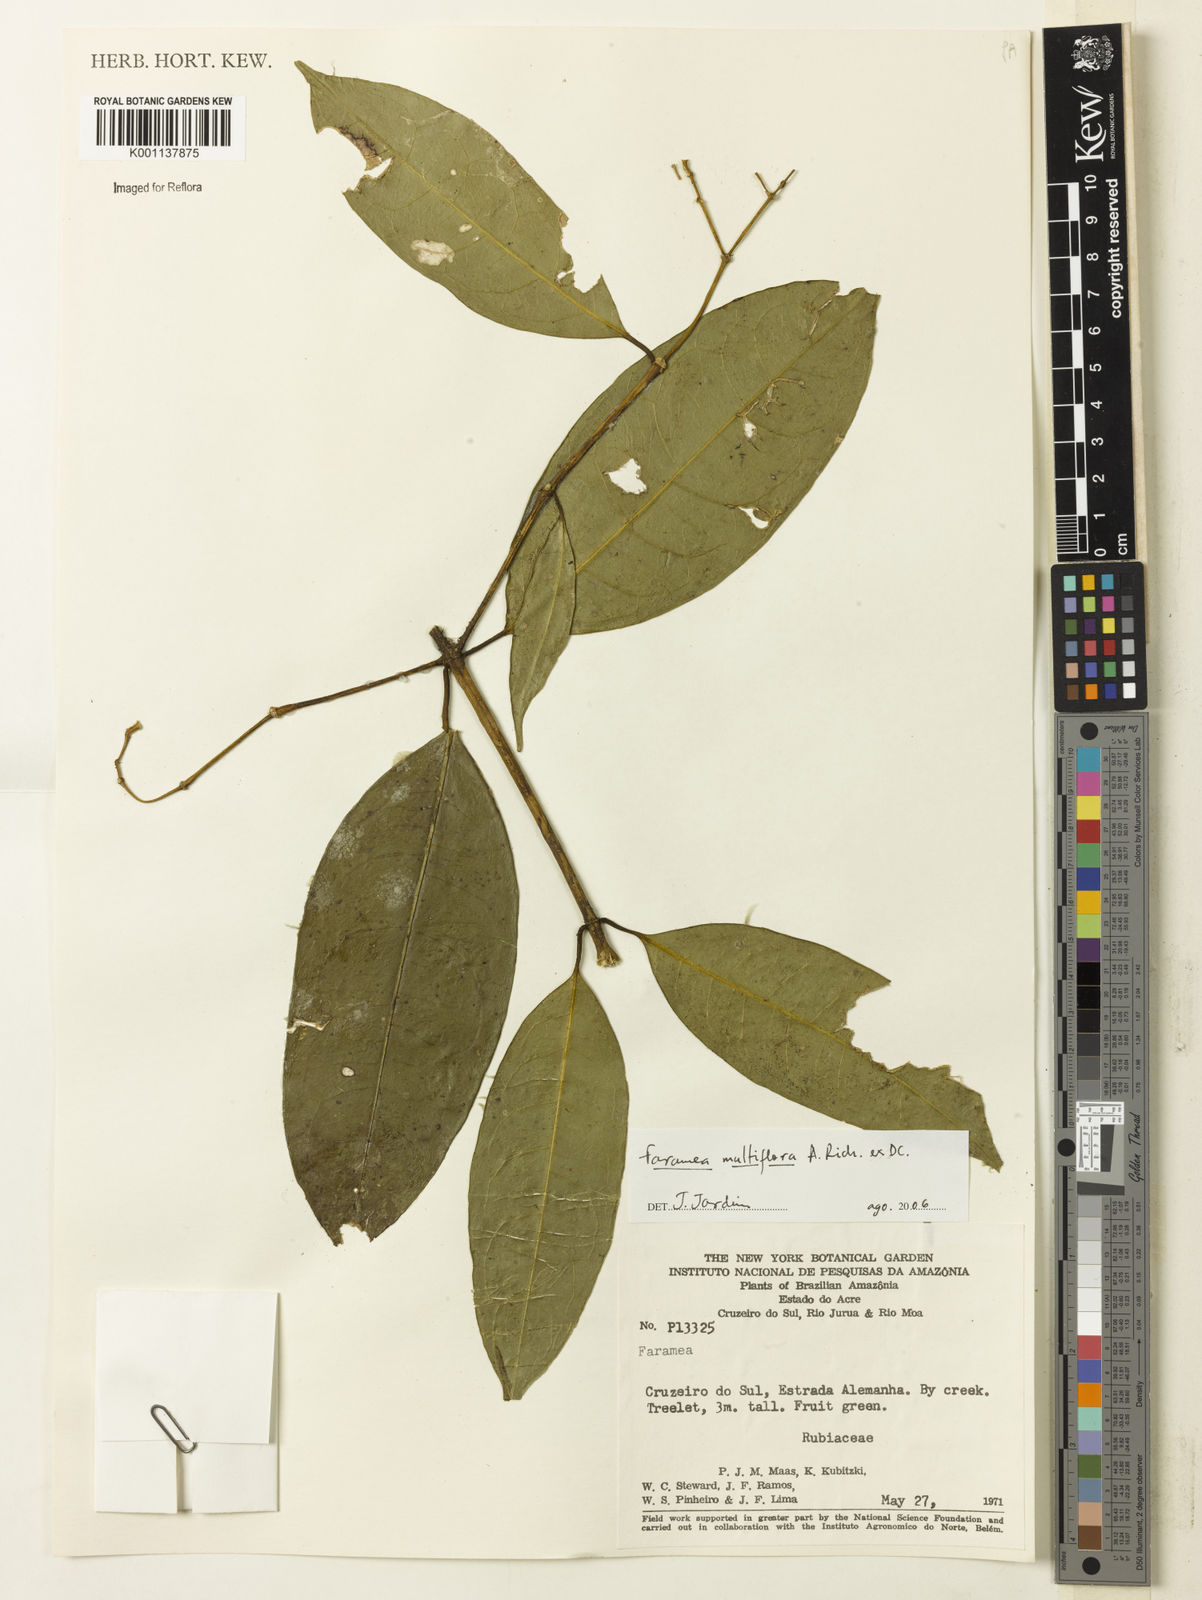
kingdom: Plantae
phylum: Tracheophyta
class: Magnoliopsida
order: Gentianales
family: Rubiaceae
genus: Faramea
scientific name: Faramea multiflora
